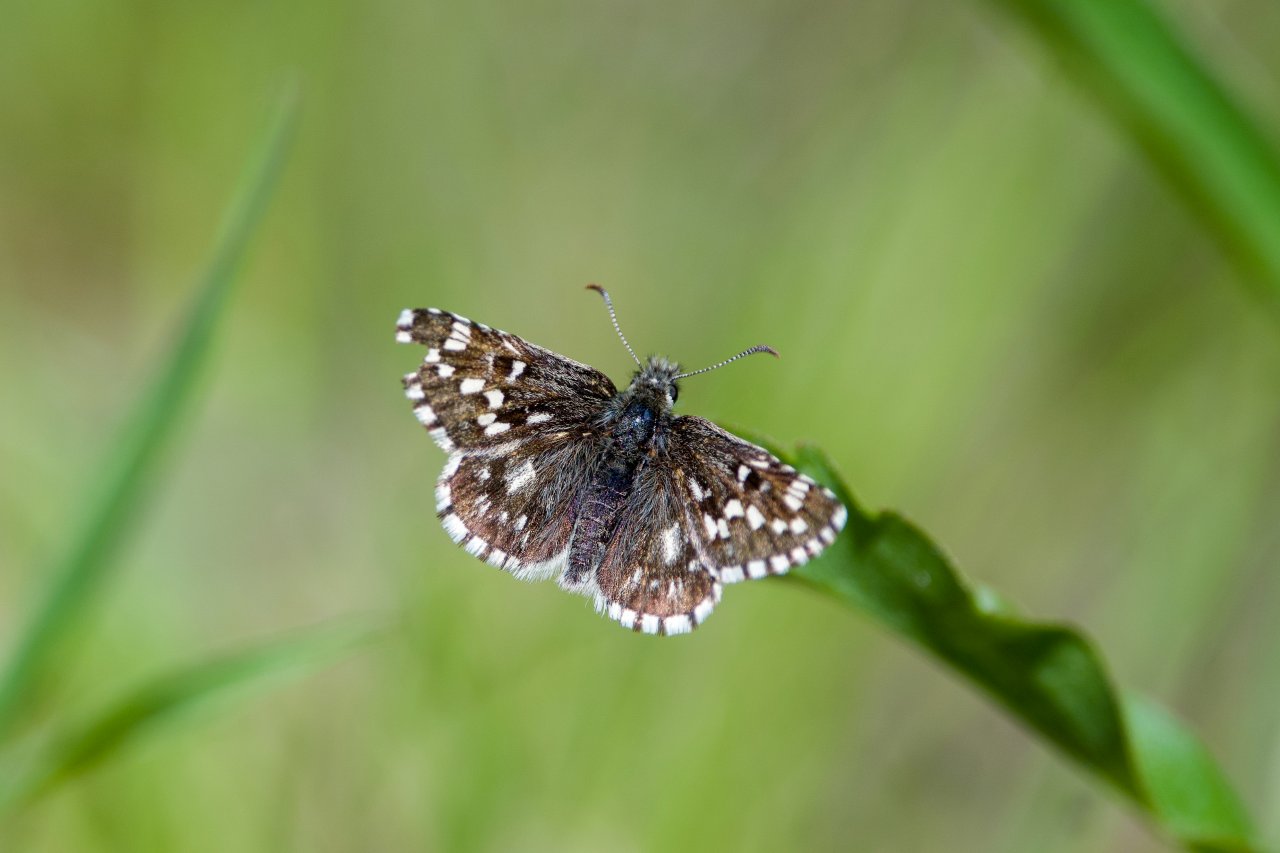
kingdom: Animalia
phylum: Arthropoda
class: Insecta
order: Lepidoptera
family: Hesperiidae
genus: Pyrgus
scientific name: Pyrgus centaureae
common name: Grizzled Skipper
